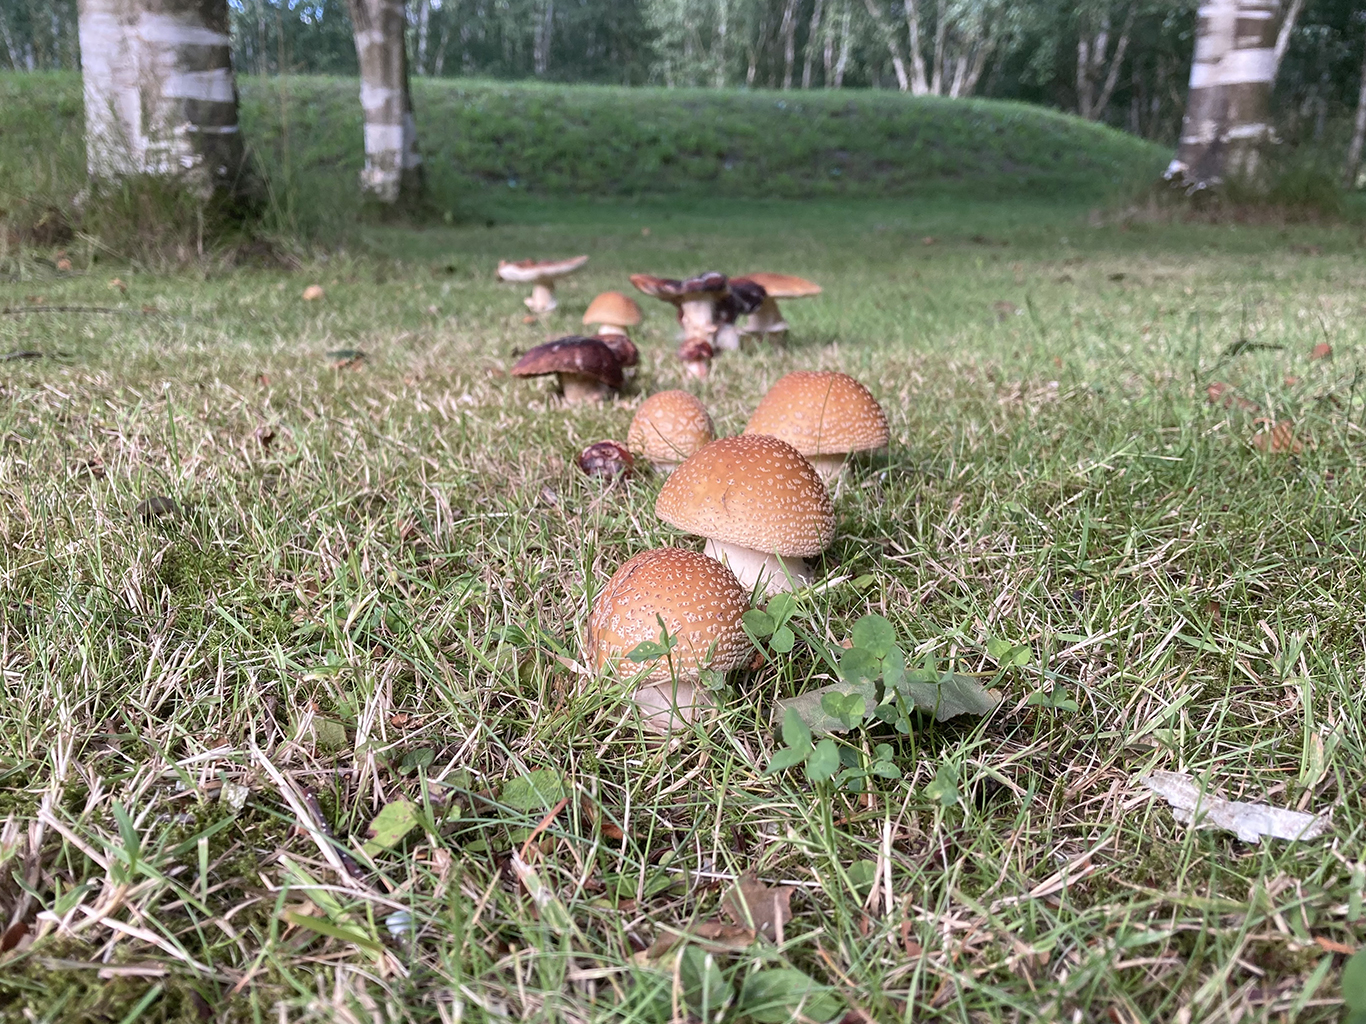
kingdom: Fungi
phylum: Basidiomycota
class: Agaricomycetes
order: Agaricales
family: Amanitaceae
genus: Amanita
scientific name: Amanita rubescens
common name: rødmende fluesvamp
